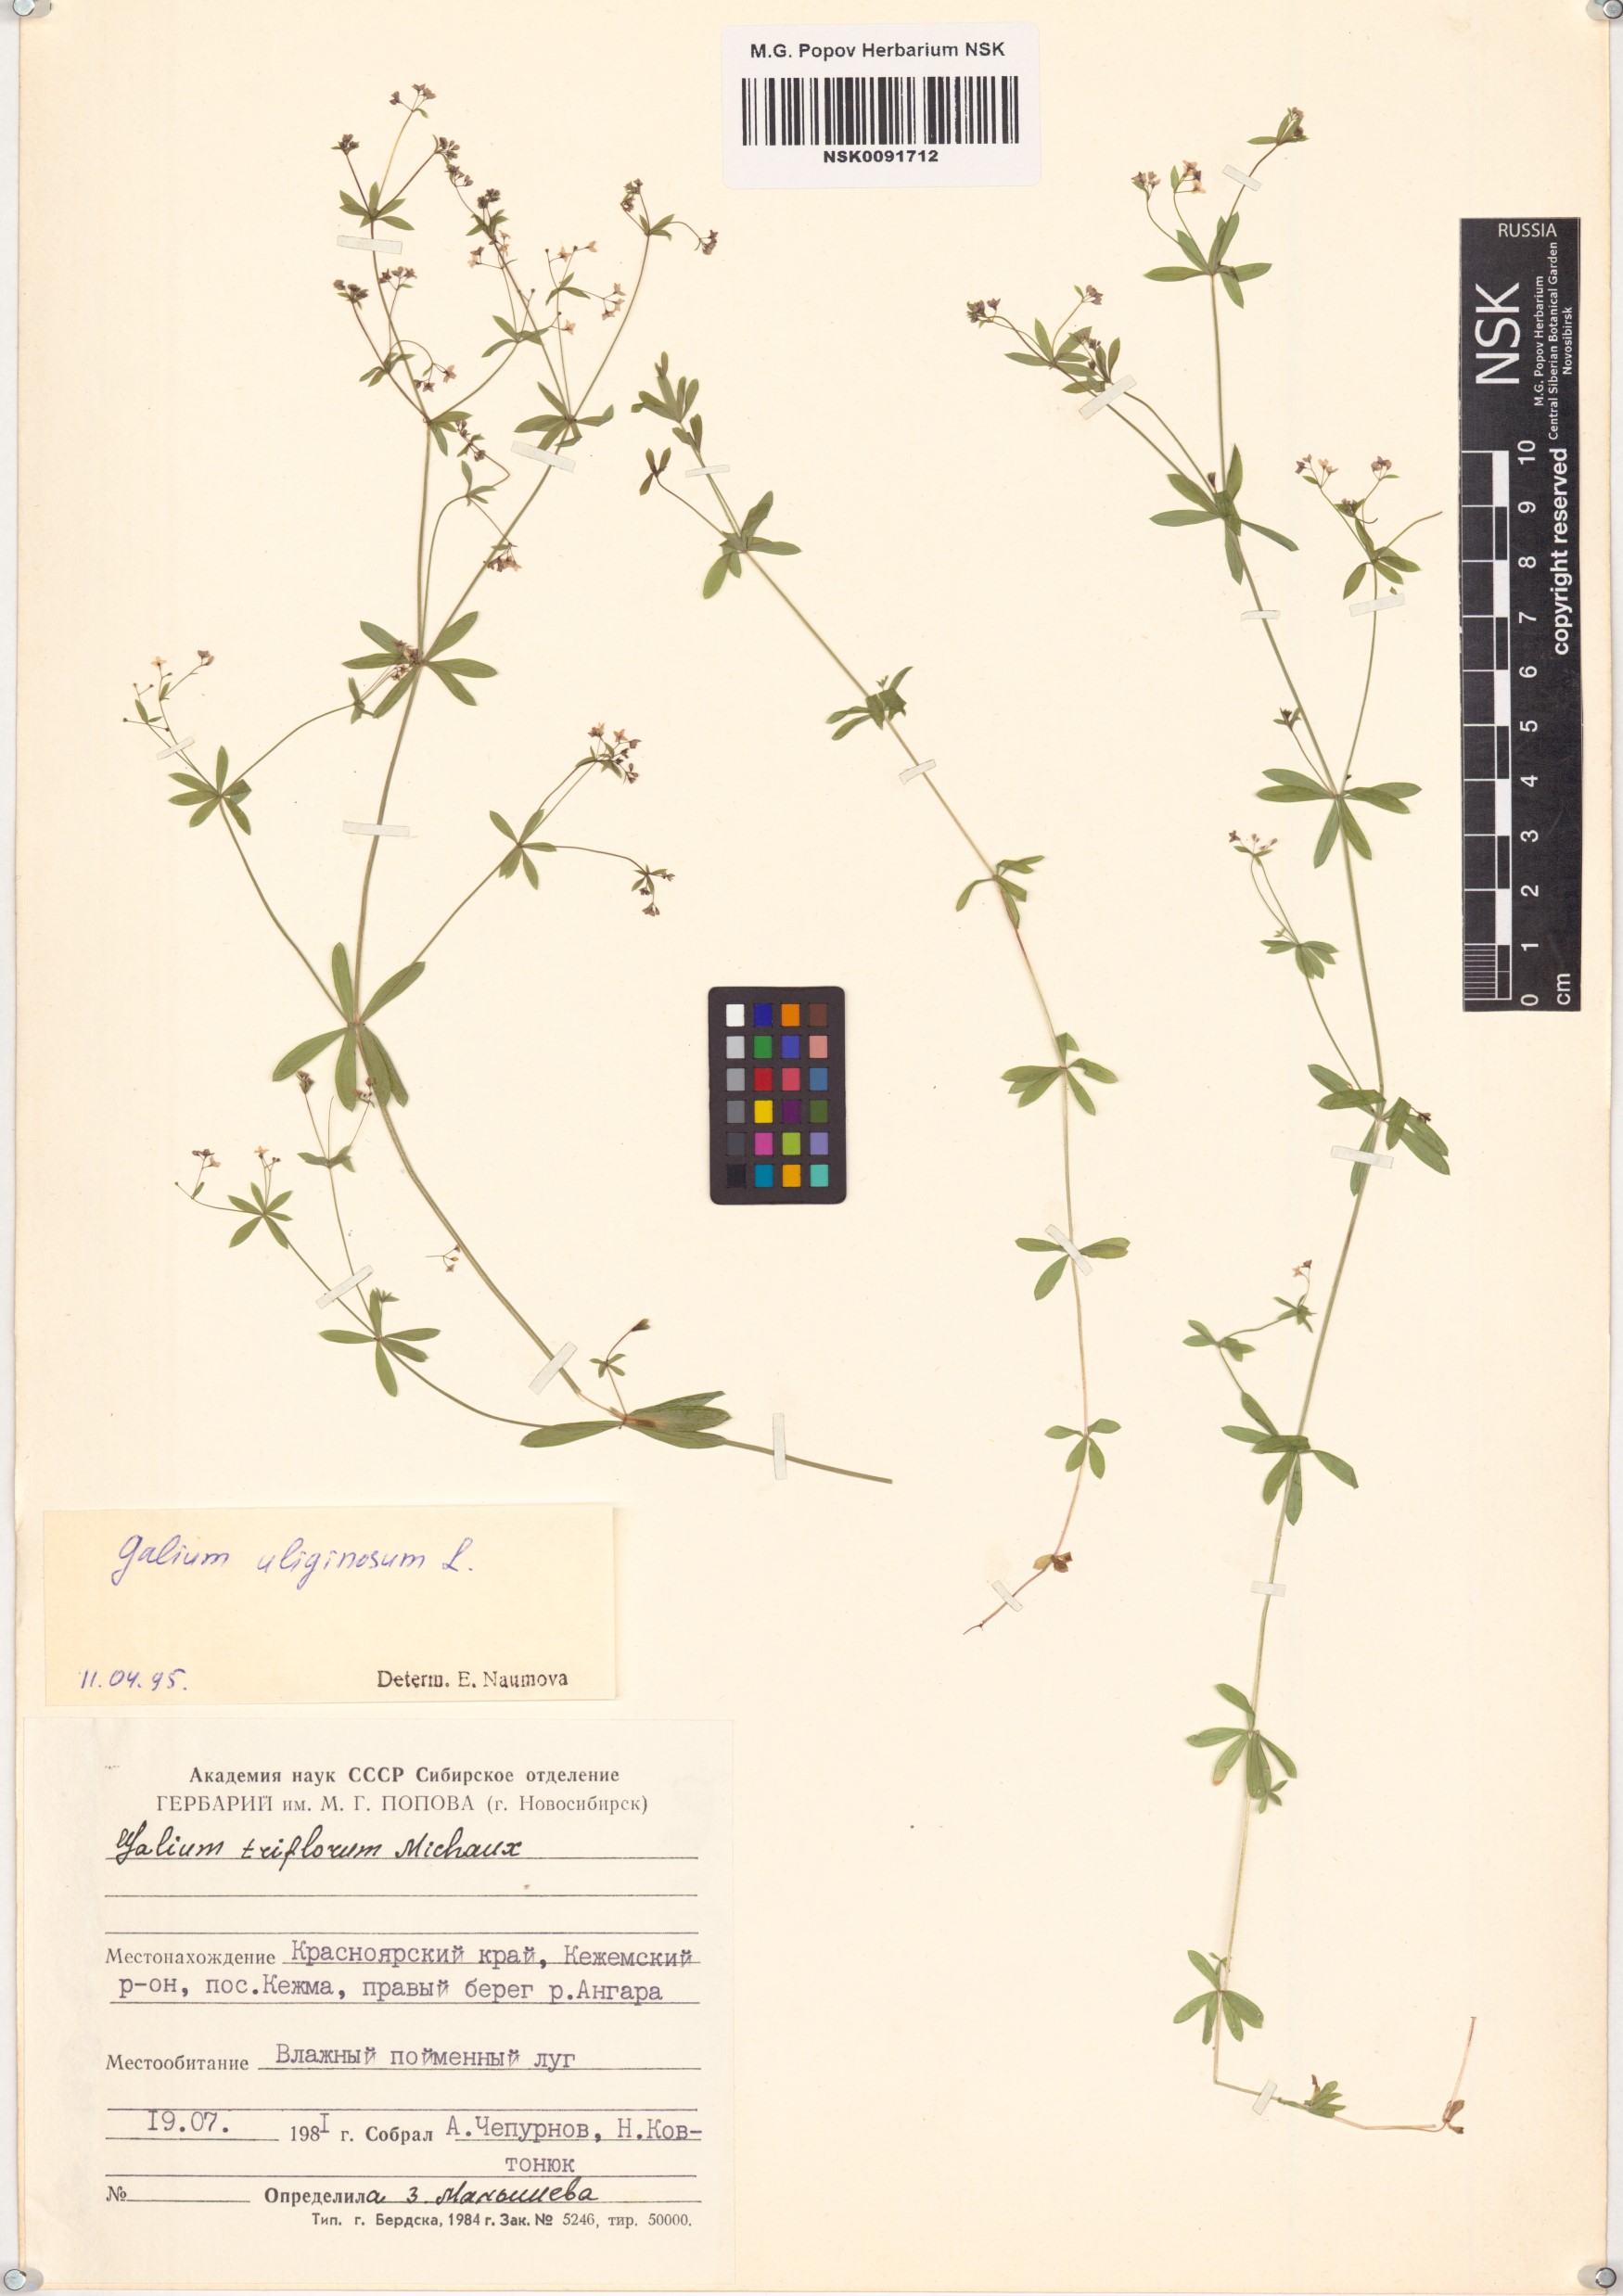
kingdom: Plantae
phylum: Tracheophyta
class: Magnoliopsida
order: Gentianales
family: Rubiaceae
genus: Galium
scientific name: Galium uliginosum
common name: Fen bedstraw
